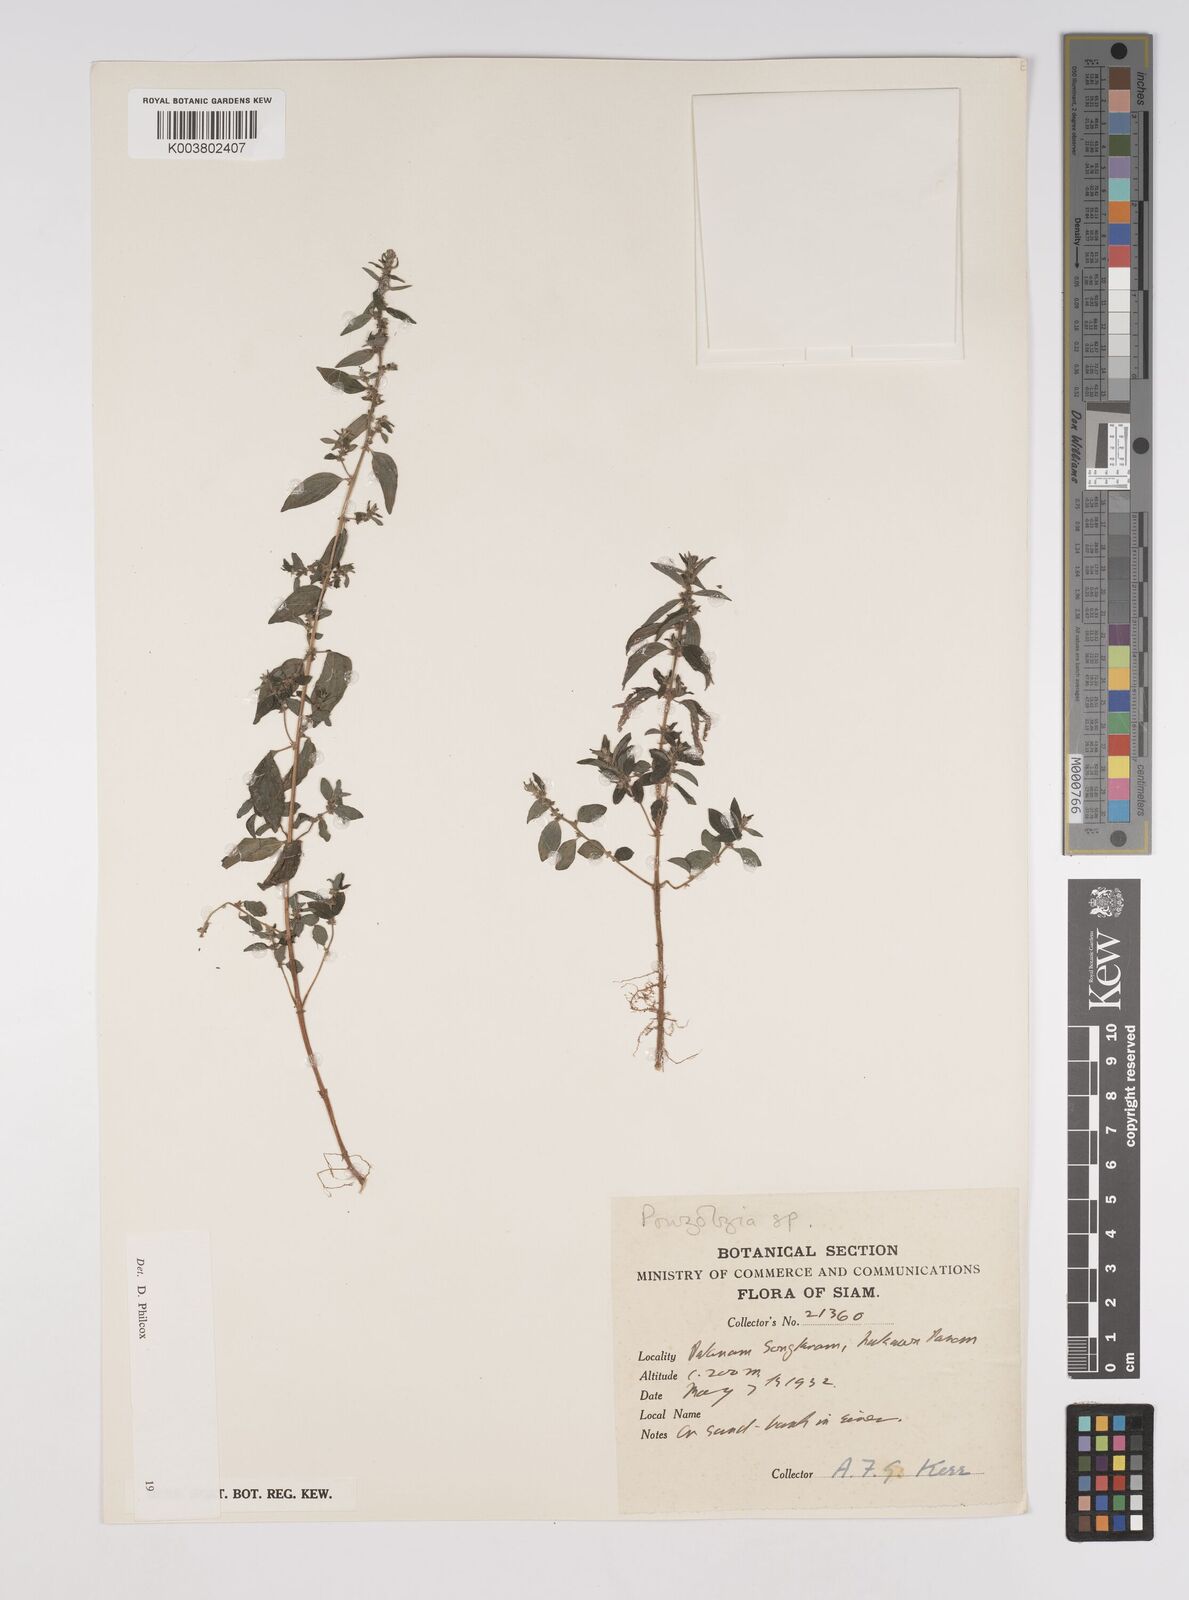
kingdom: Plantae
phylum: Tracheophyta
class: Magnoliopsida
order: Rosales
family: Urticaceae
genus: Pouzolzia
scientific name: Pouzolzia zeylanica
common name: Graceful pouzolzsbush
